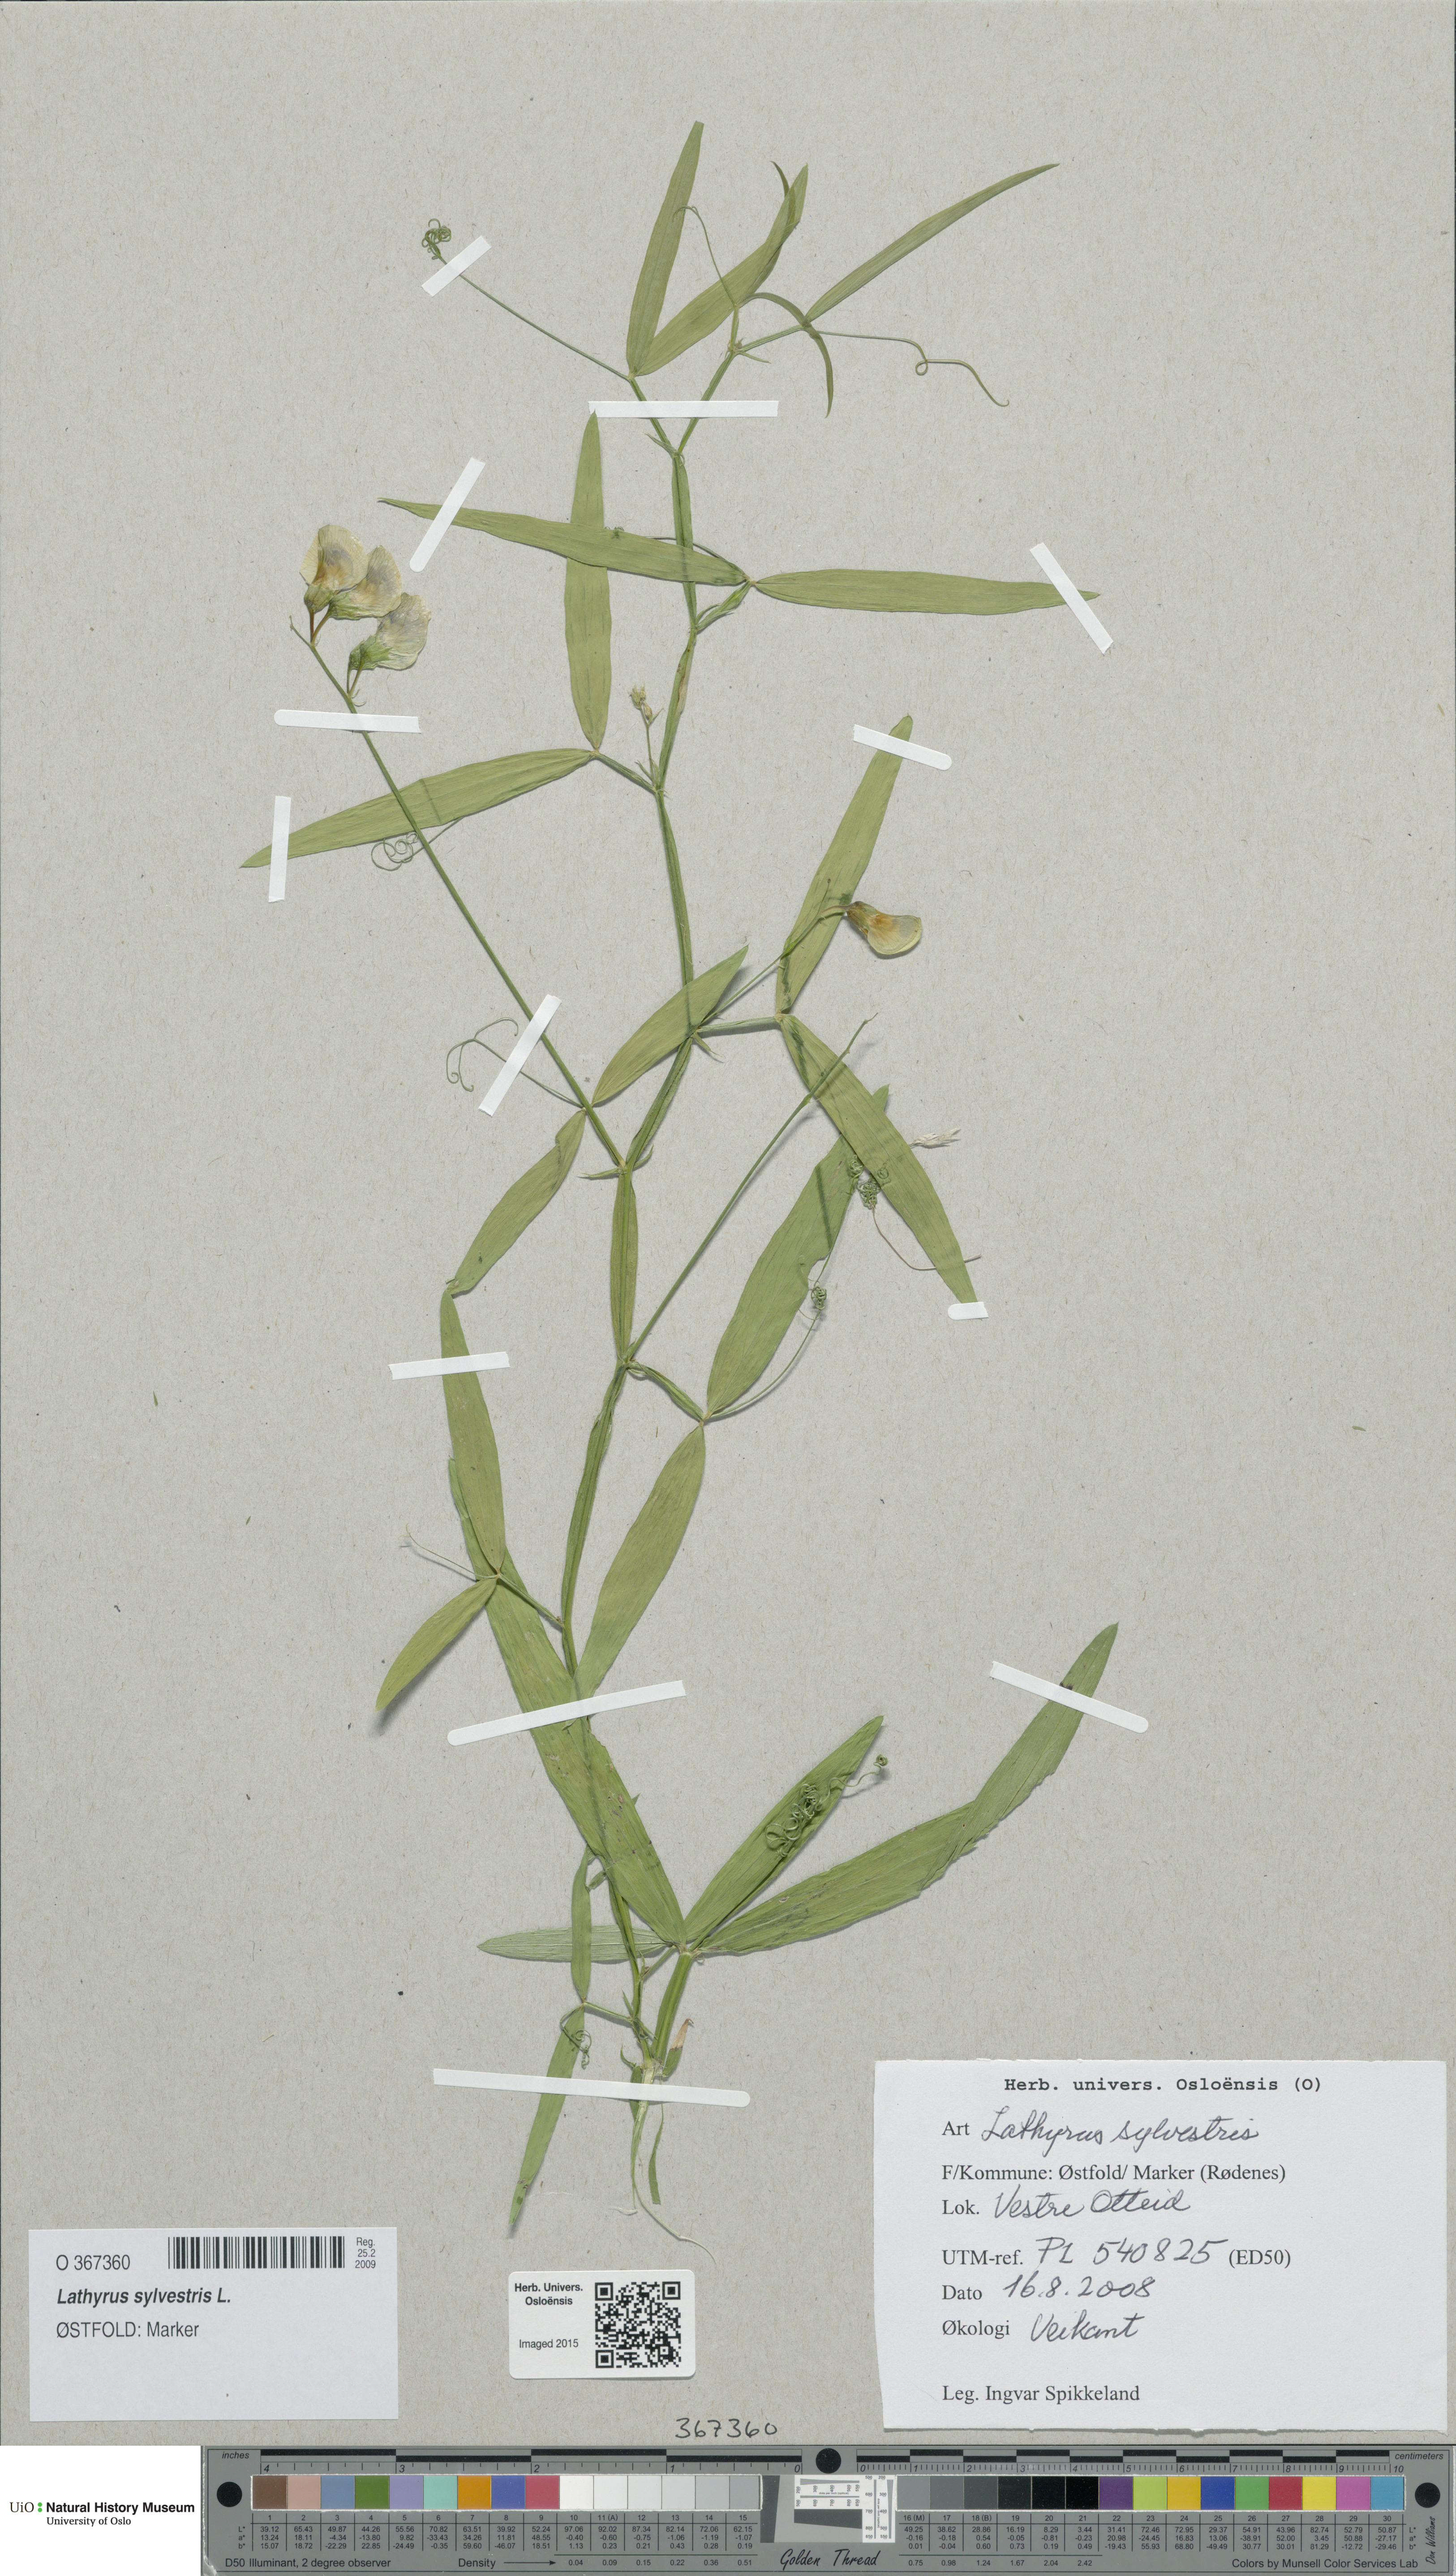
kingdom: Plantae
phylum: Tracheophyta
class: Magnoliopsida
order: Fabales
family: Fabaceae
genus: Lathyrus
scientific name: Lathyrus sylvestris
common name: Flat pea
